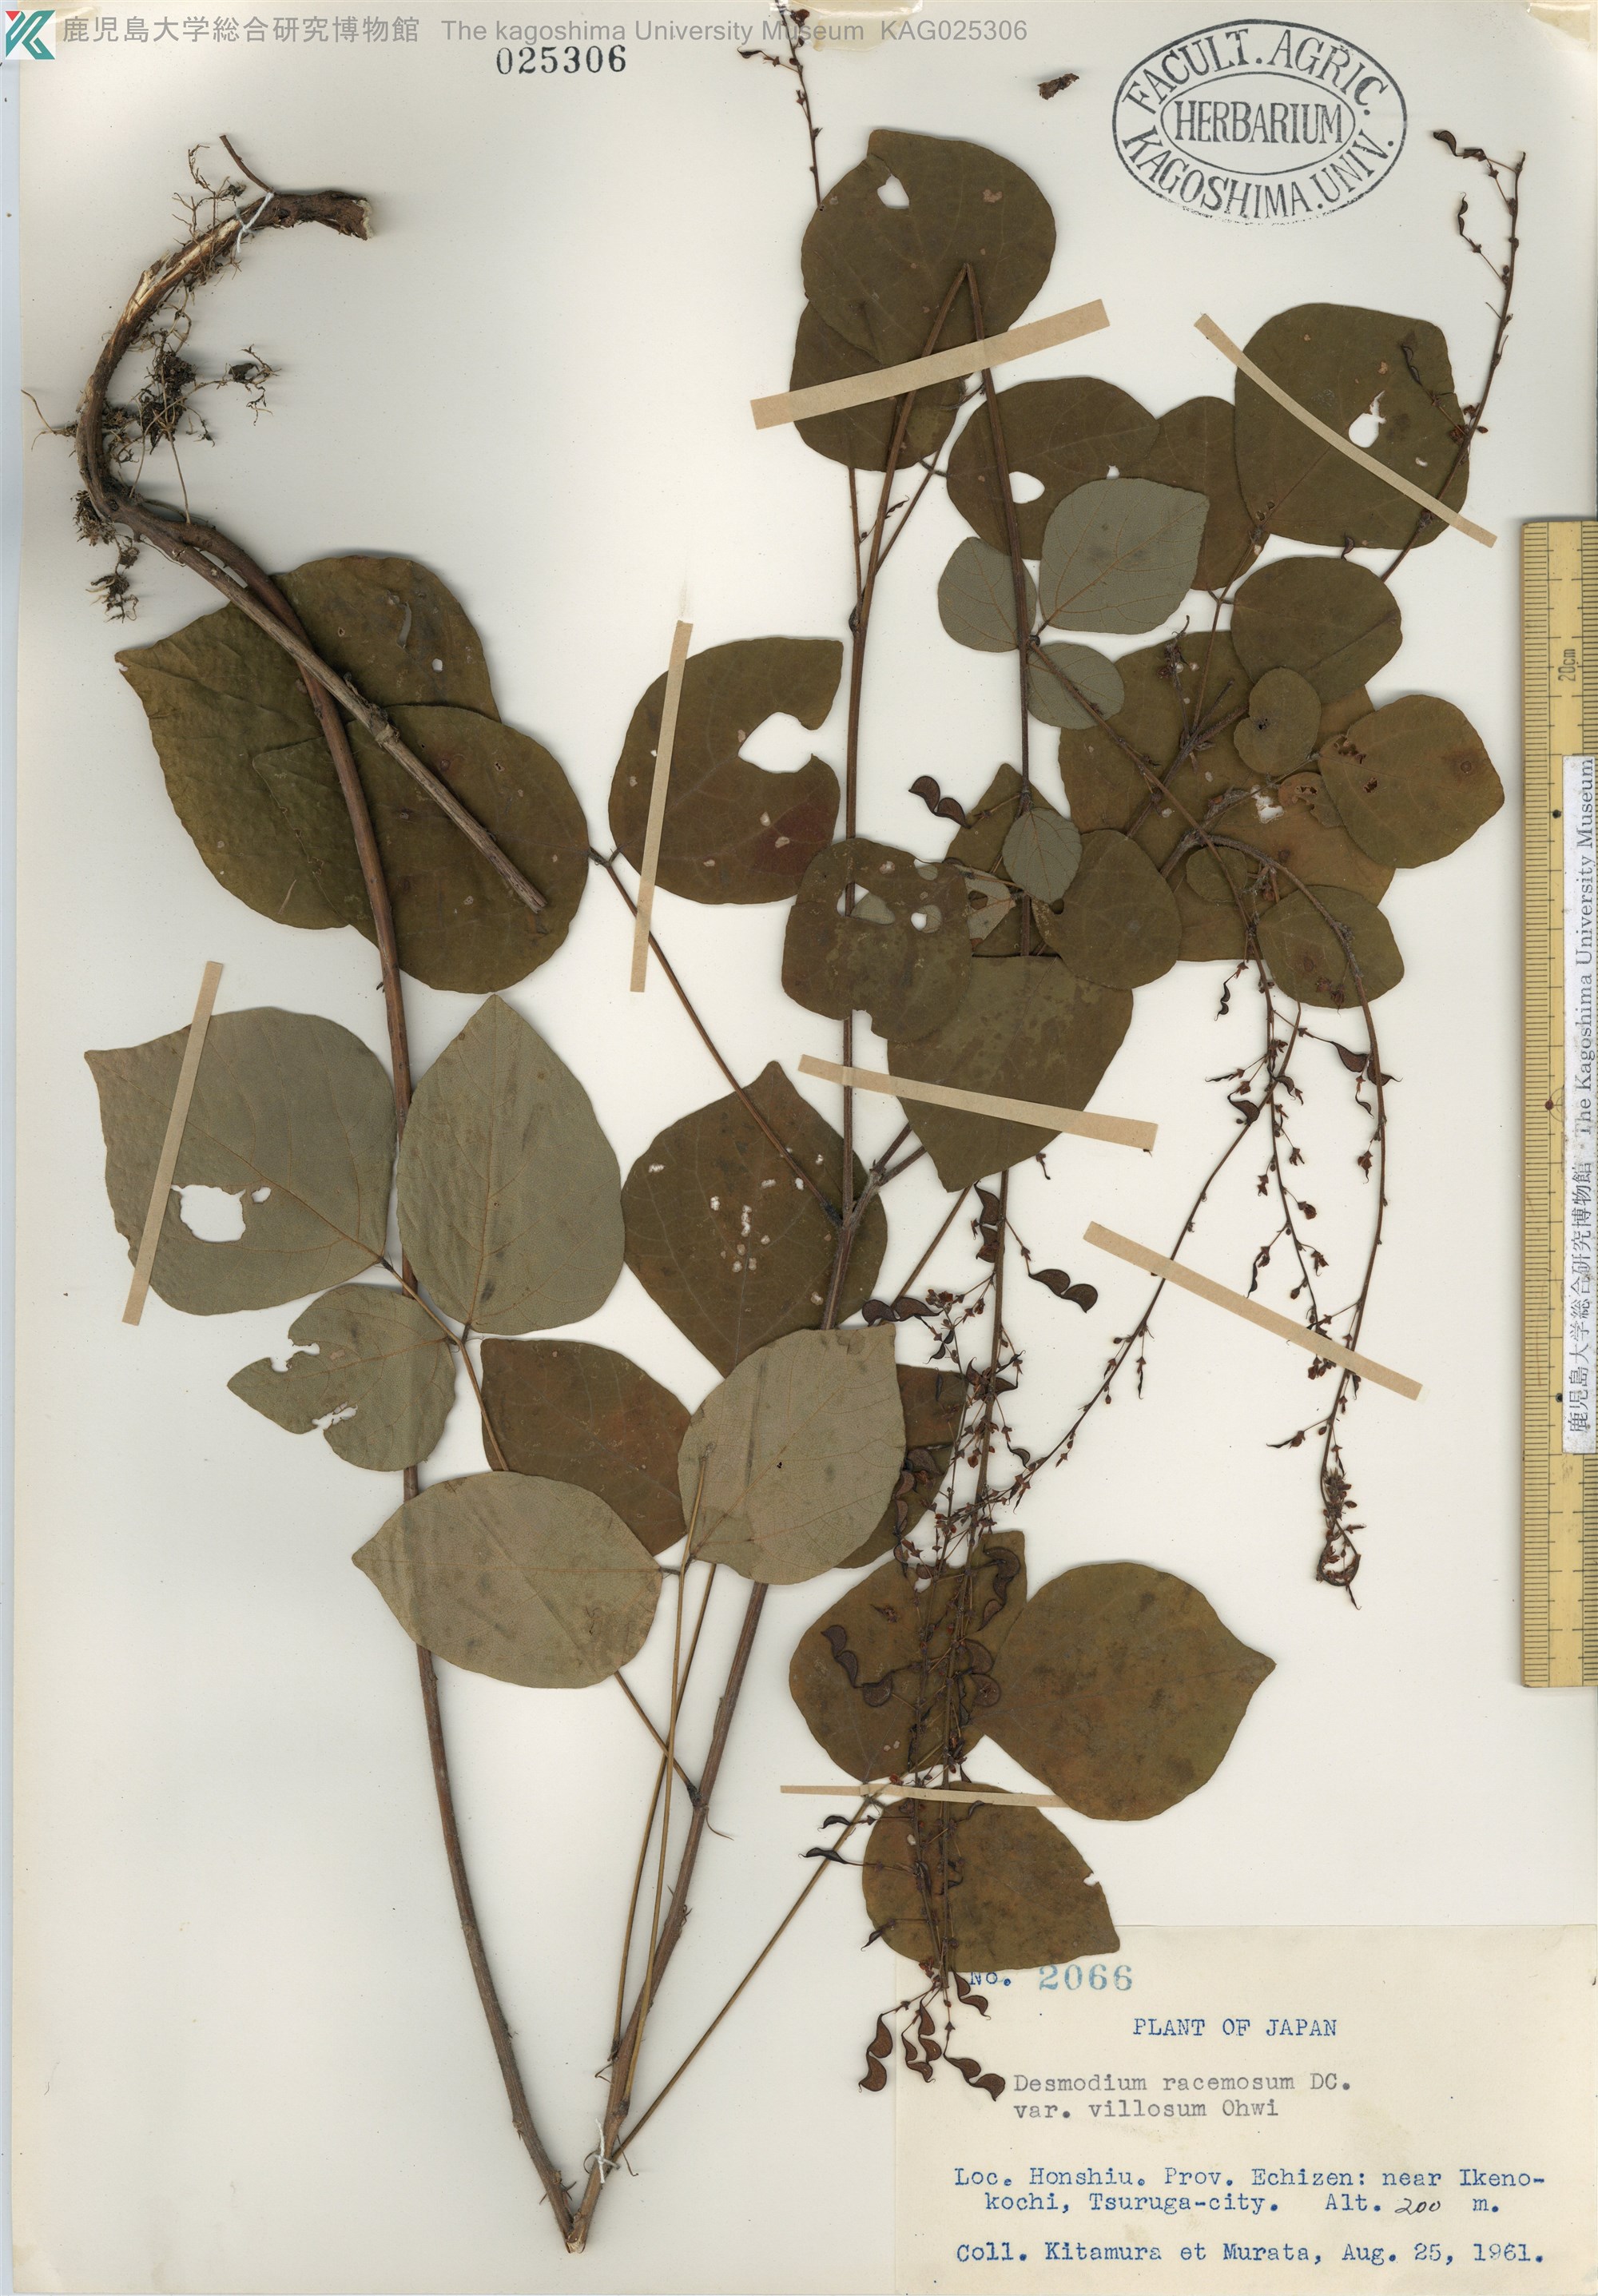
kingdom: Plantae
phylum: Tracheophyta
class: Magnoliopsida
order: Fabales
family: Fabaceae
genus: Hylodesmum
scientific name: Hylodesmum podocarpum
